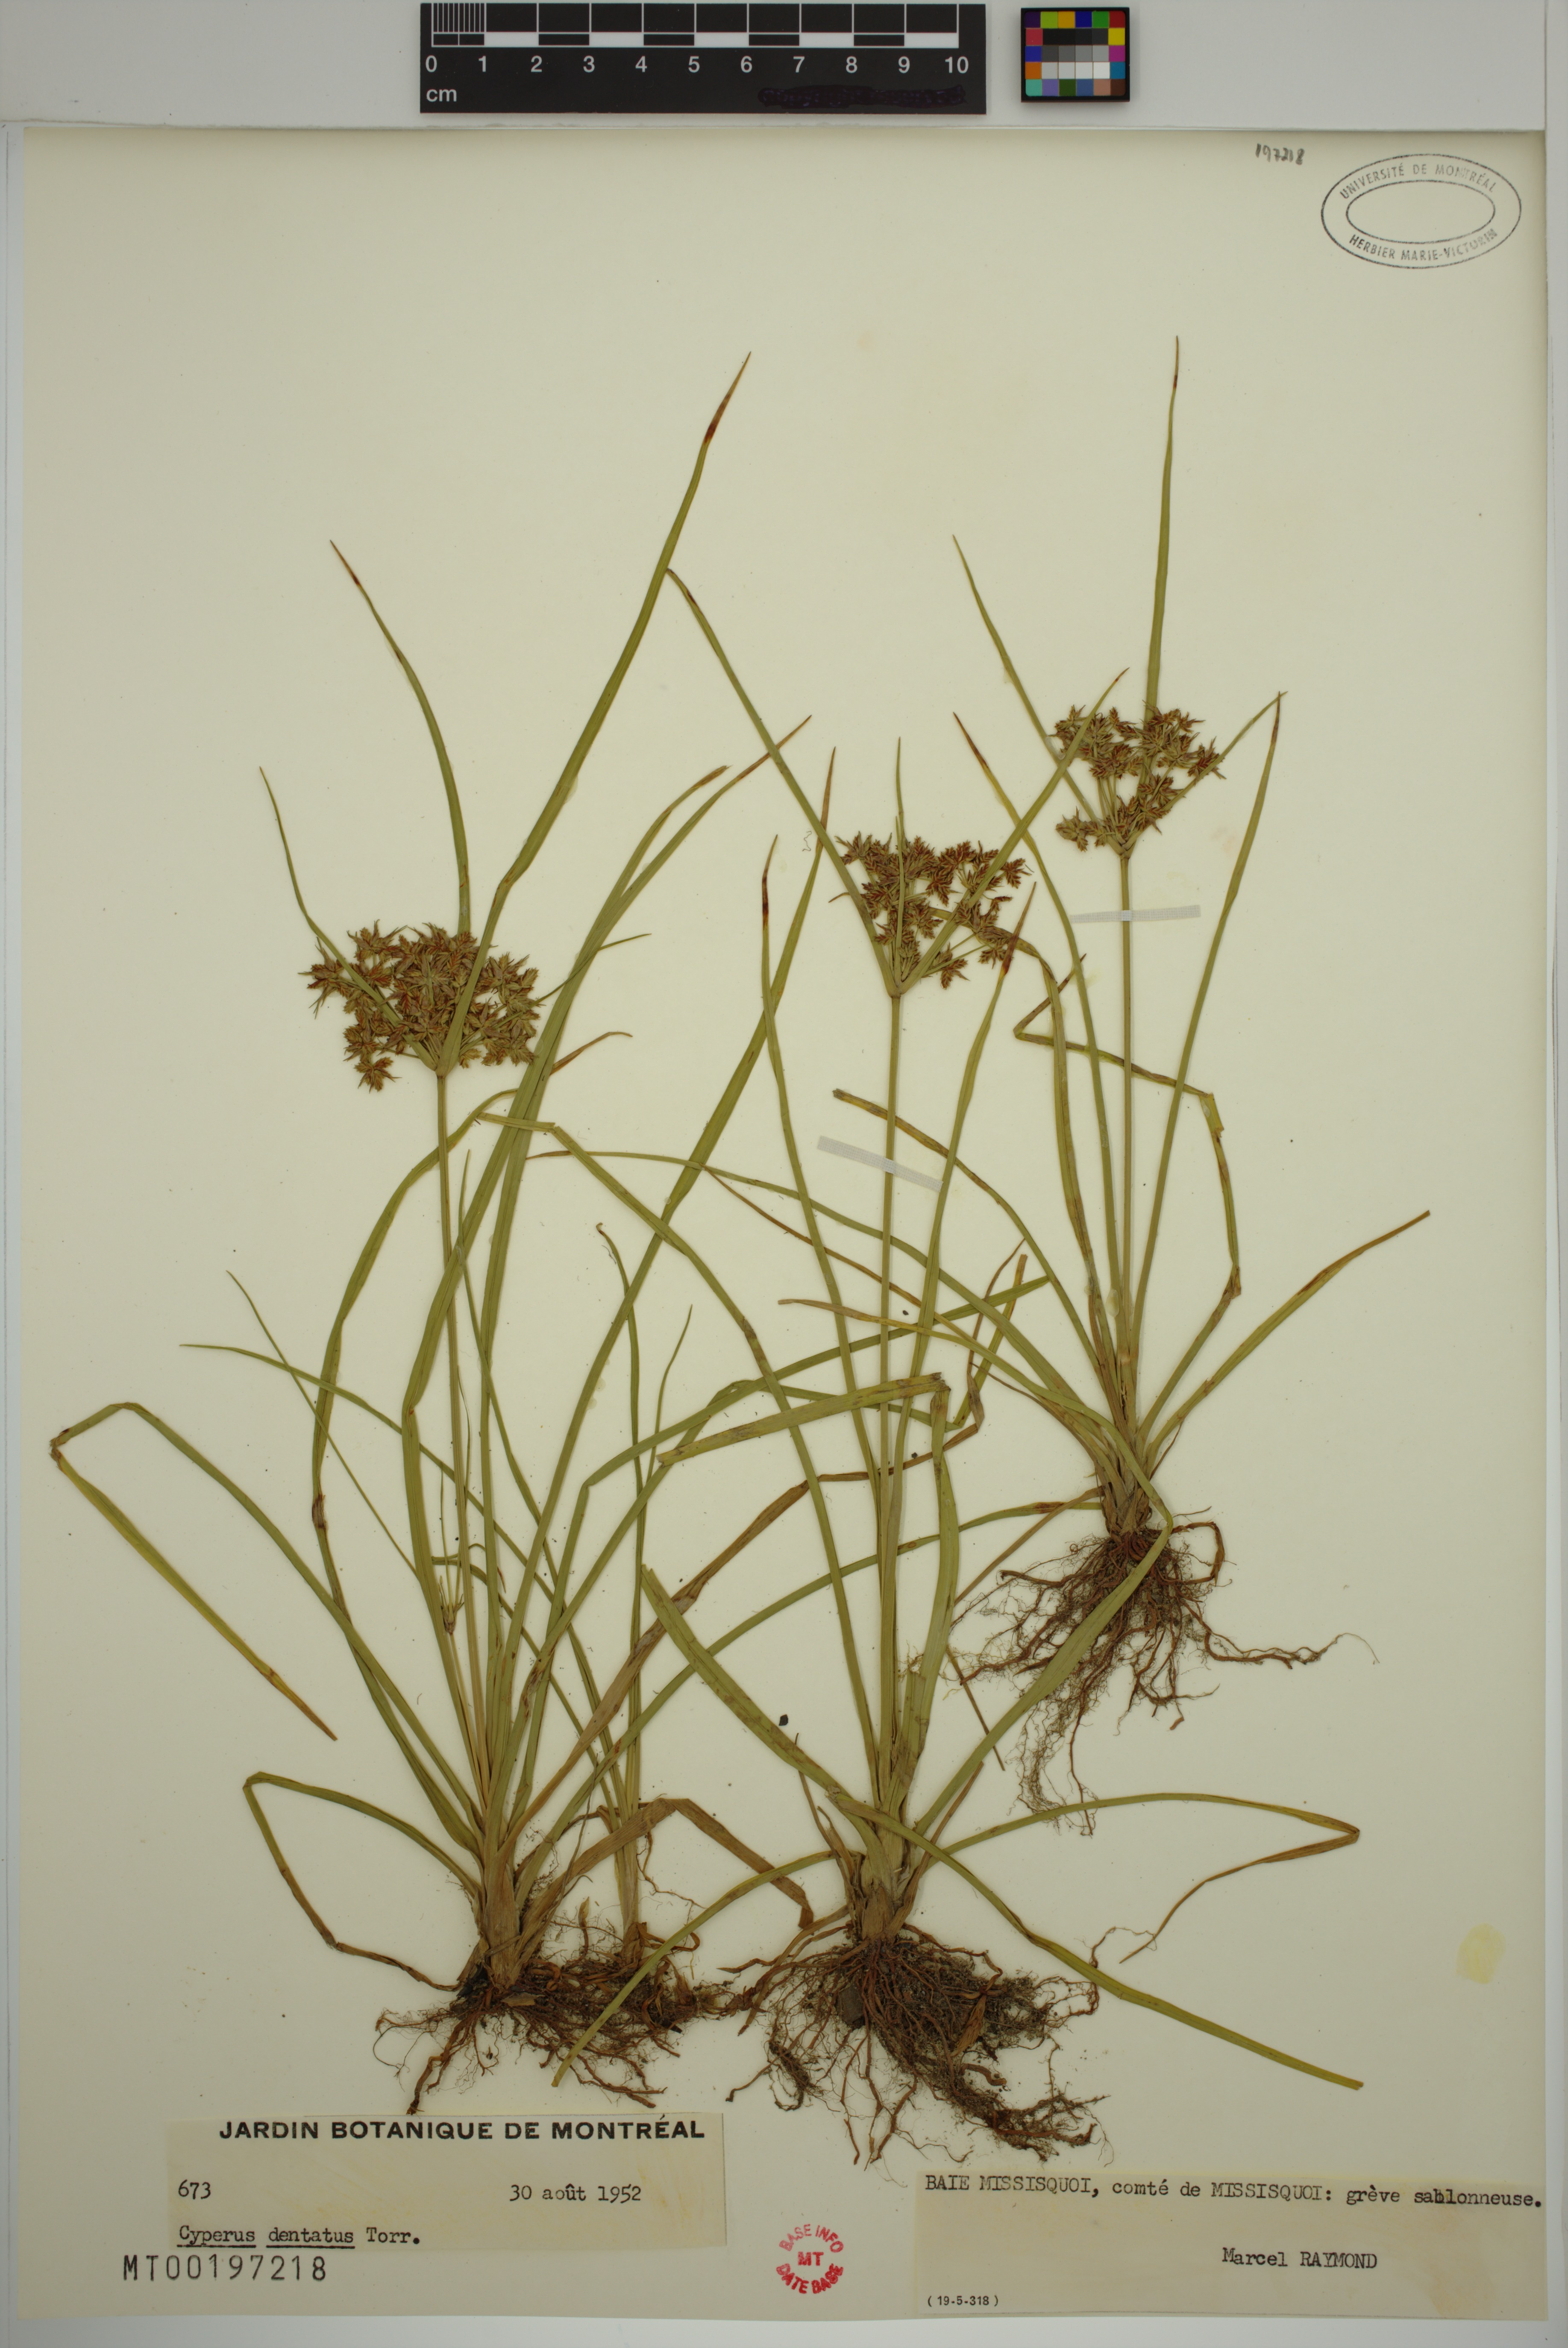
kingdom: Plantae
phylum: Tracheophyta
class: Liliopsida
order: Poales
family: Cyperaceae
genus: Cyperus
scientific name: Cyperus dentatus
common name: Dentate umbrella sedge
